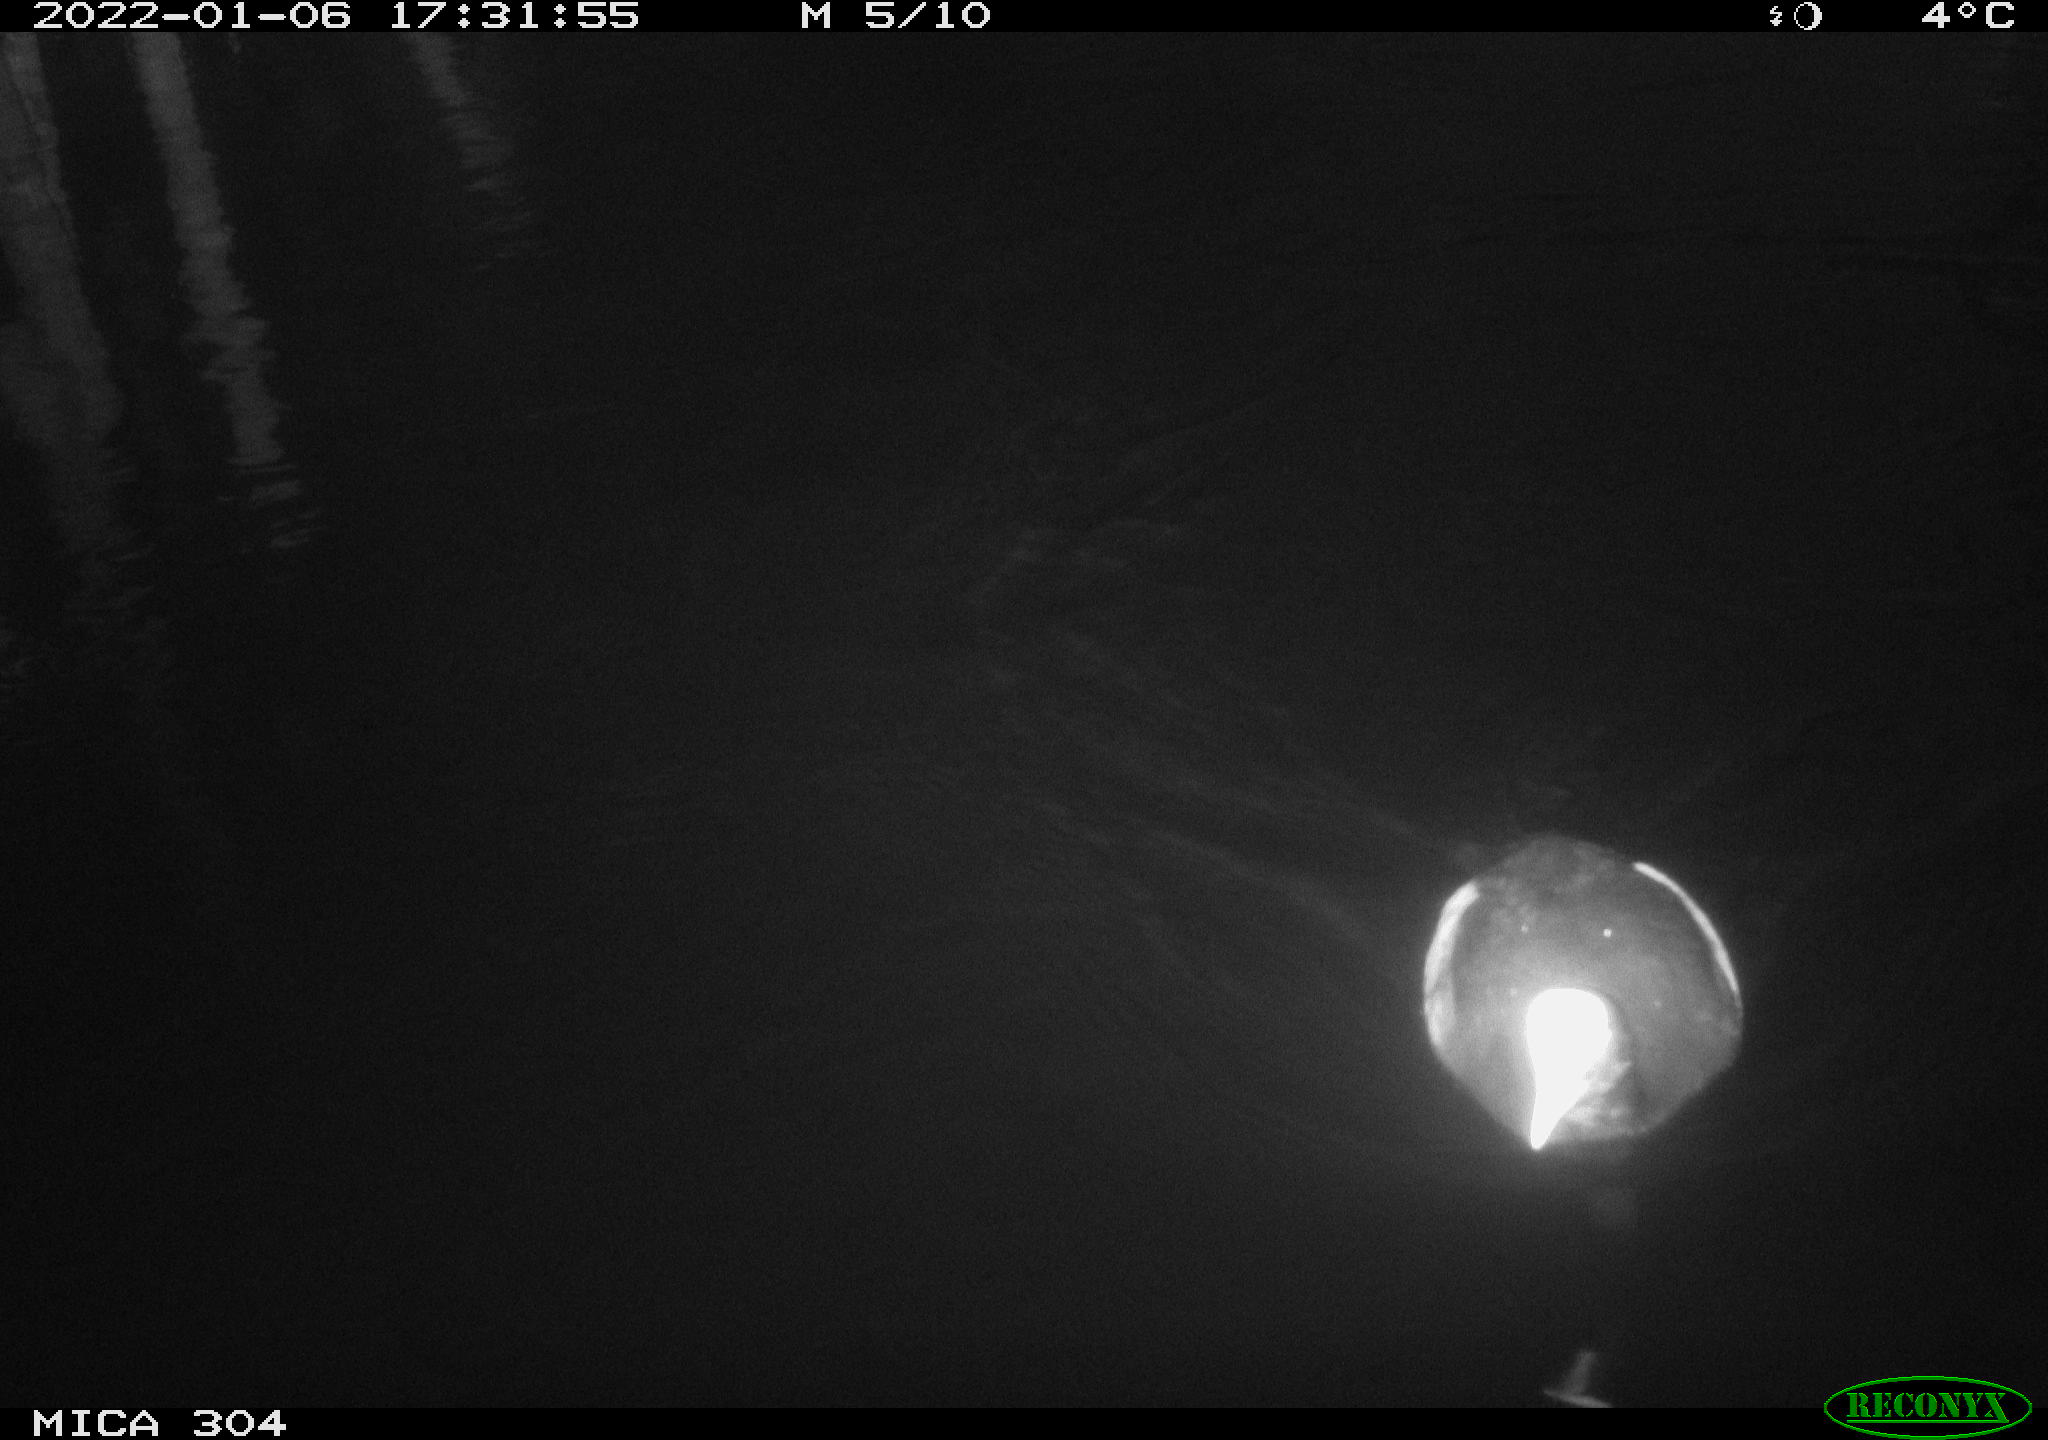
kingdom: Animalia
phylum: Chordata
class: Aves
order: Anseriformes
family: Anatidae
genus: Anas
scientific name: Anas
